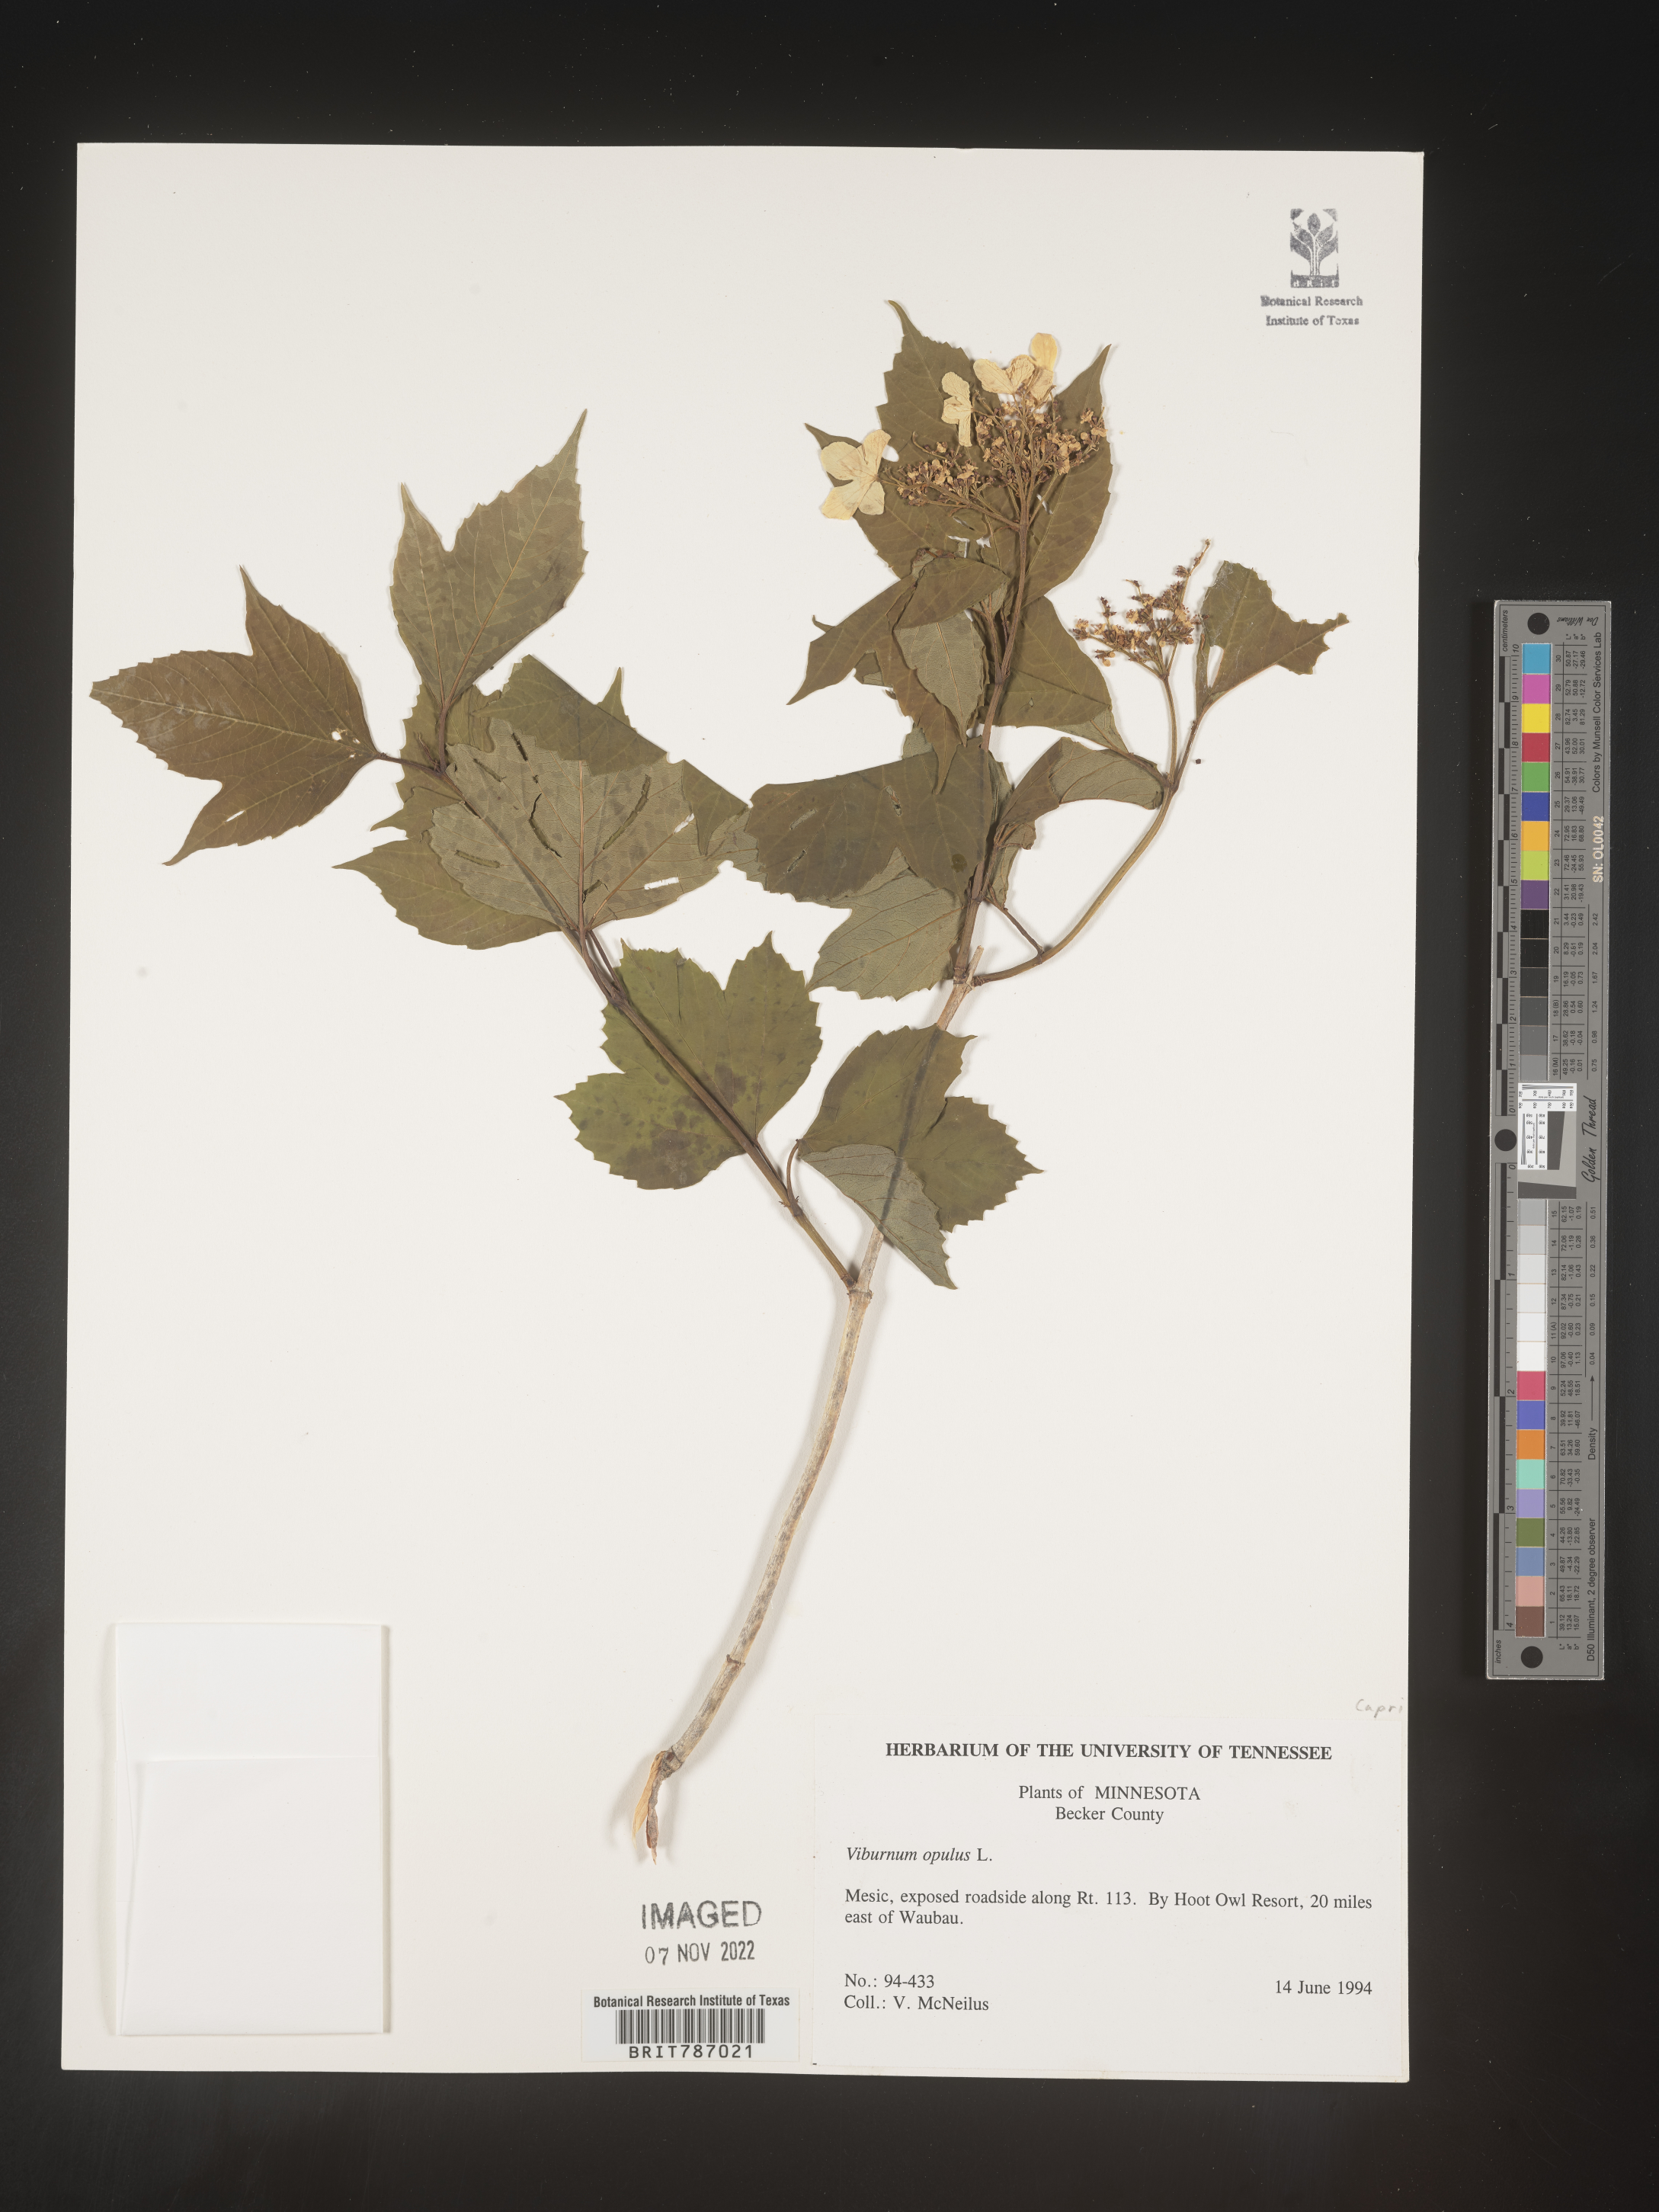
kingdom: Plantae
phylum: Tracheophyta
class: Magnoliopsida
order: Dipsacales
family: Viburnaceae
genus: Viburnum
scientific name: Viburnum opulus
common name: Guelder-rose
